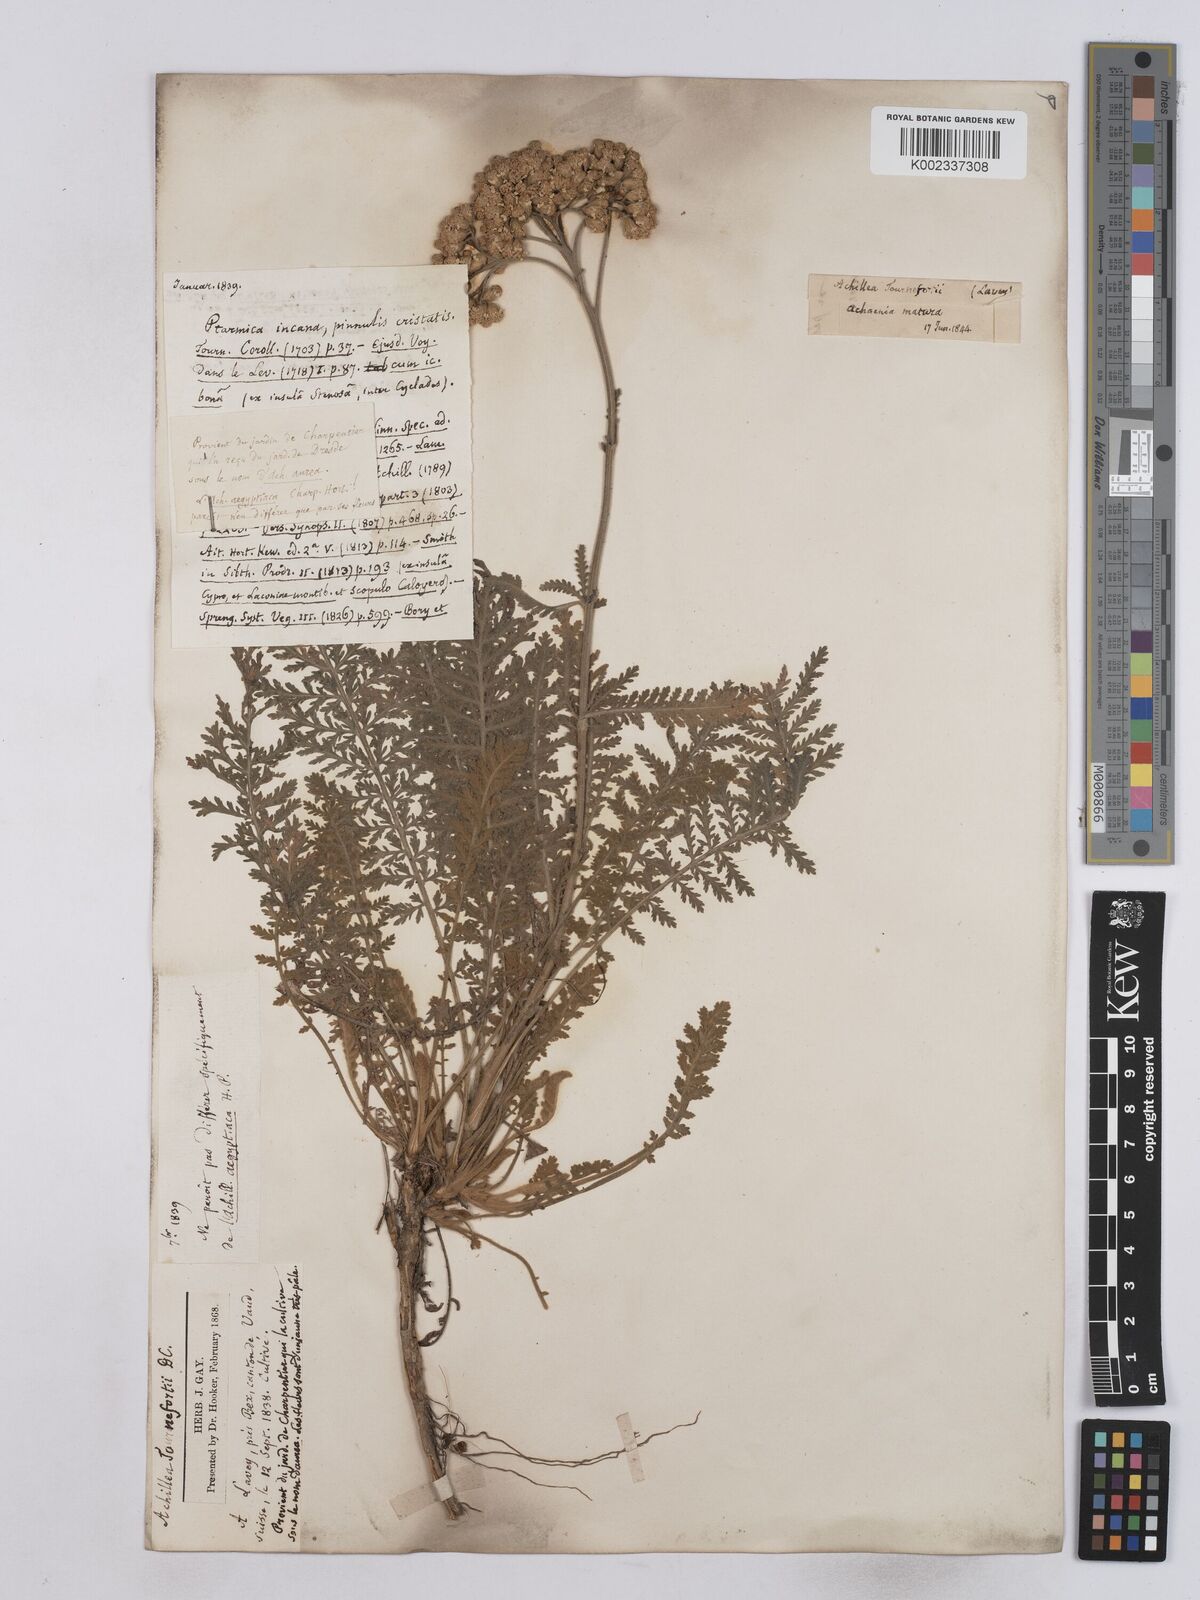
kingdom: Plantae
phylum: Tracheophyta
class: Magnoliopsida
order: Asterales
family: Asteraceae
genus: Achillea
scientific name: Achillea aegyptiaca
